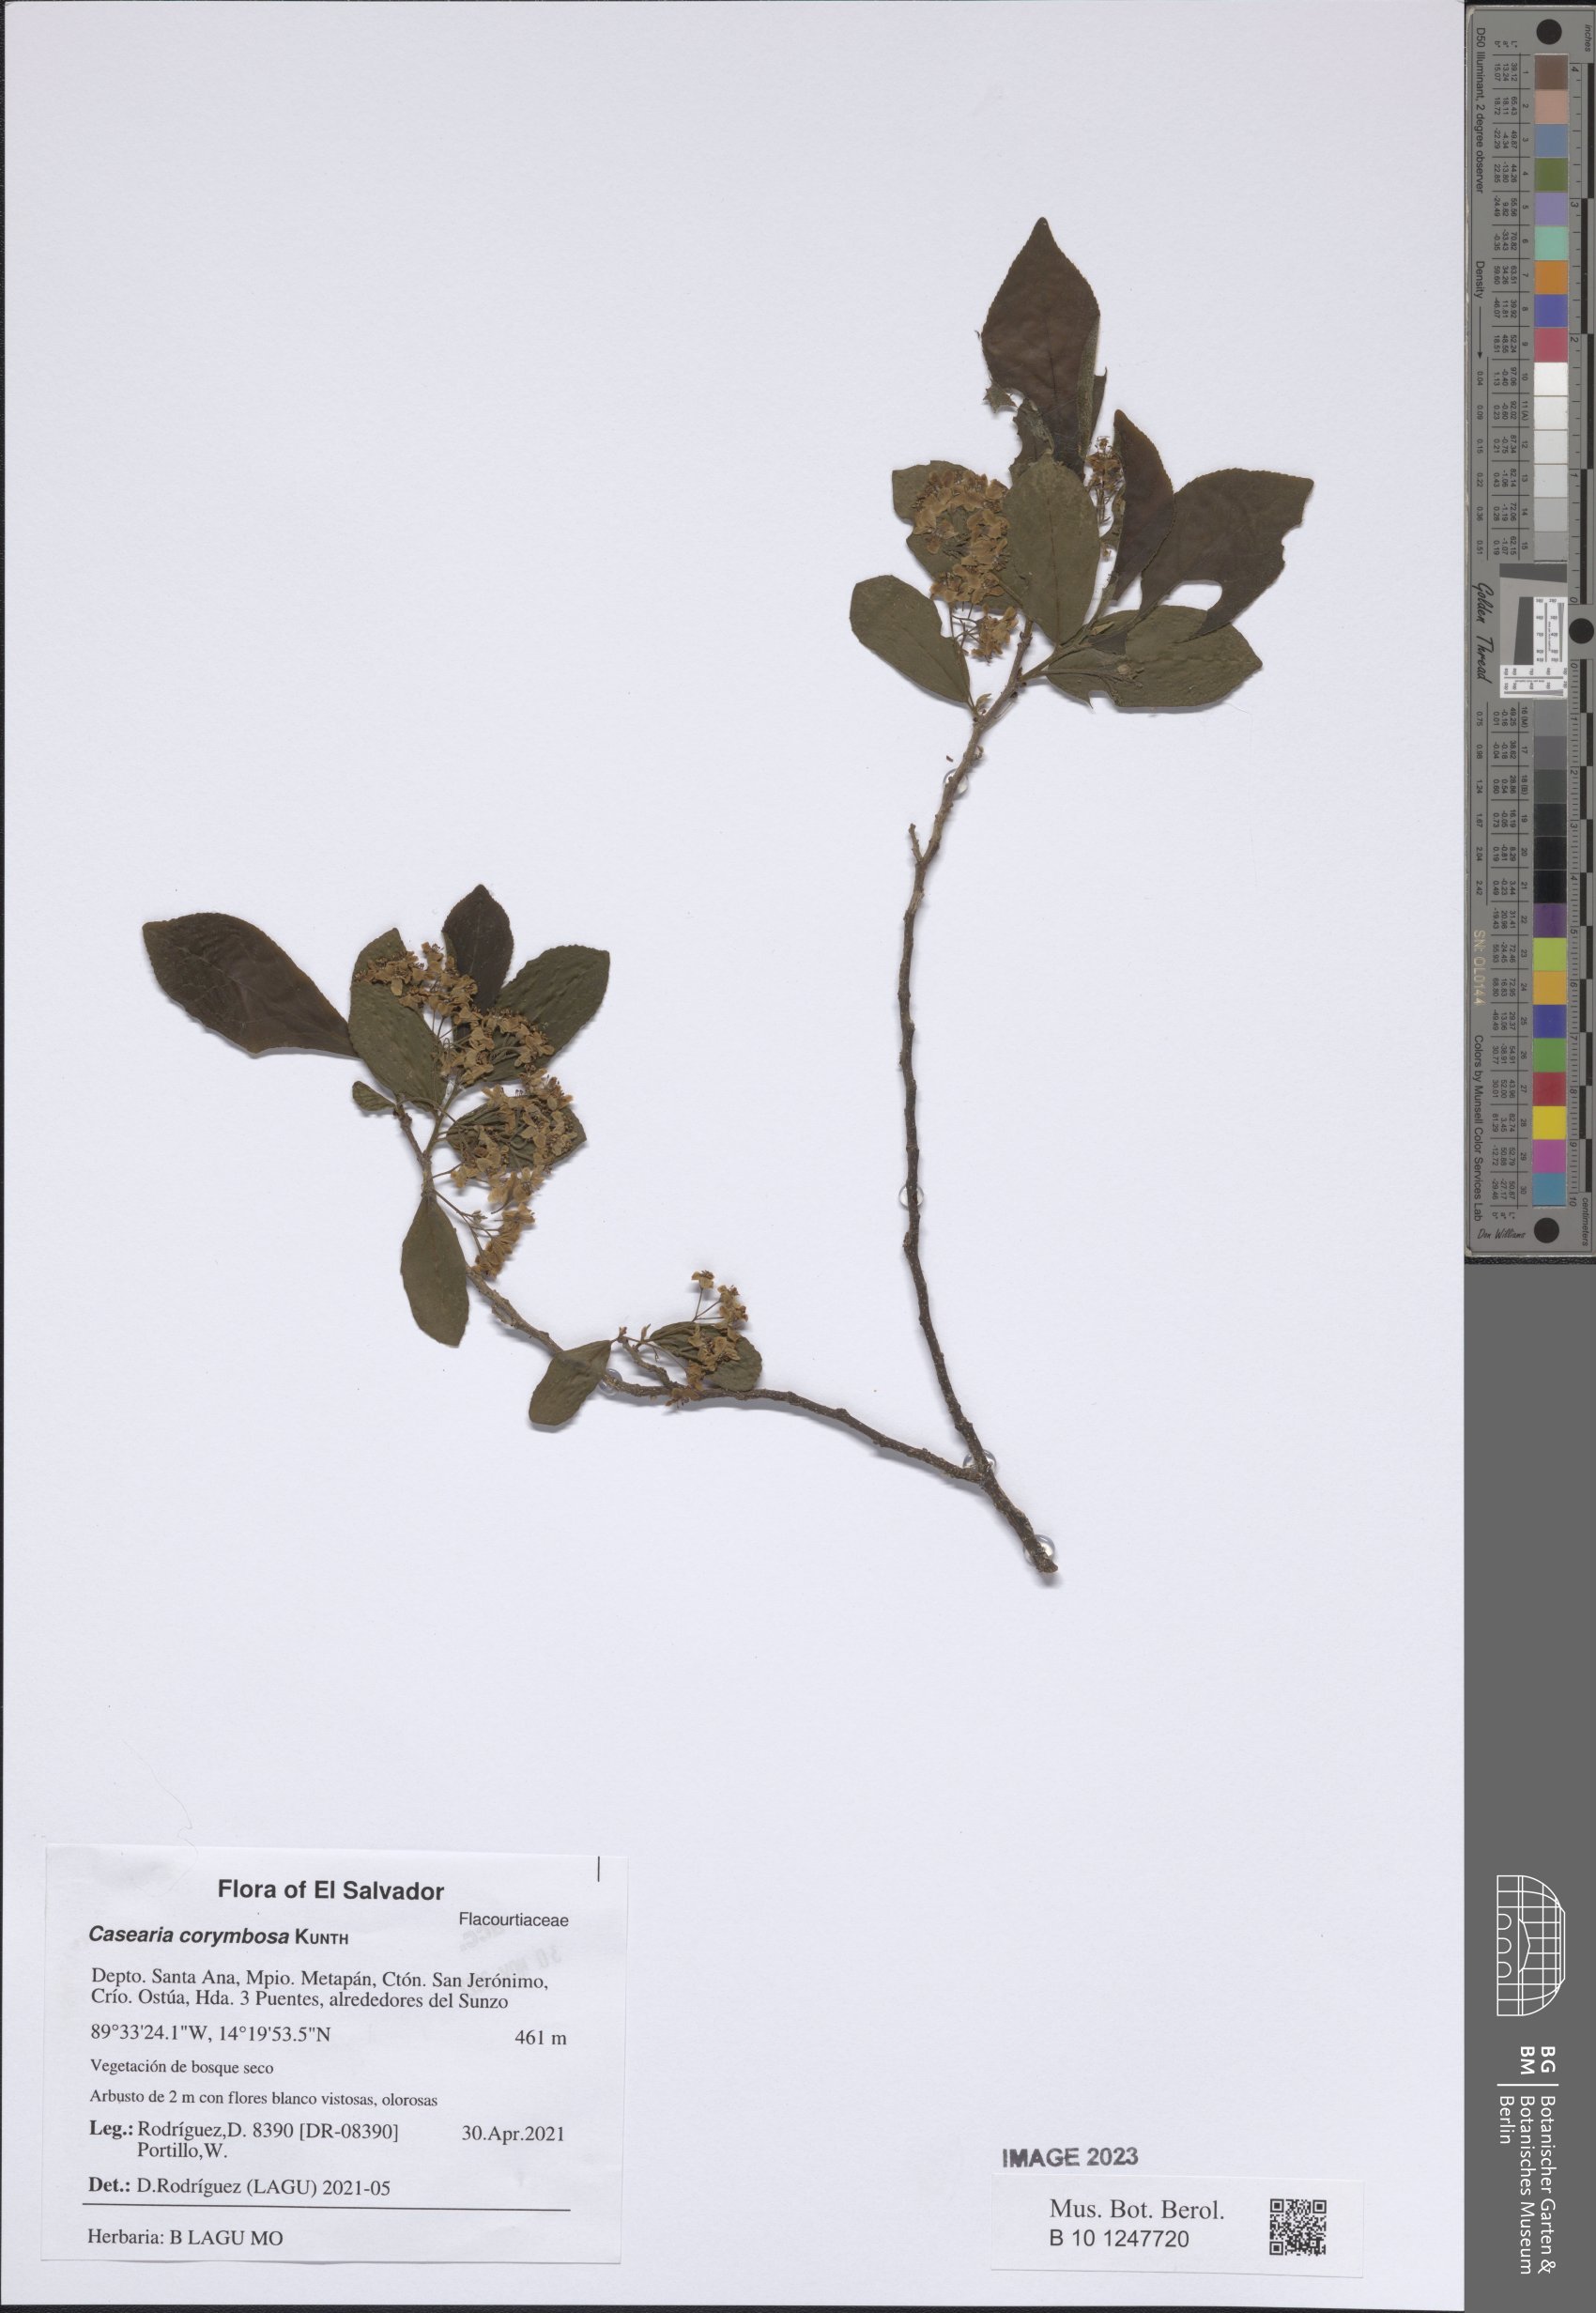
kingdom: Plantae
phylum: Tracheophyta
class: Magnoliopsida
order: Malpighiales
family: Salicaceae
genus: Casearia
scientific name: Casearia corymbosa
